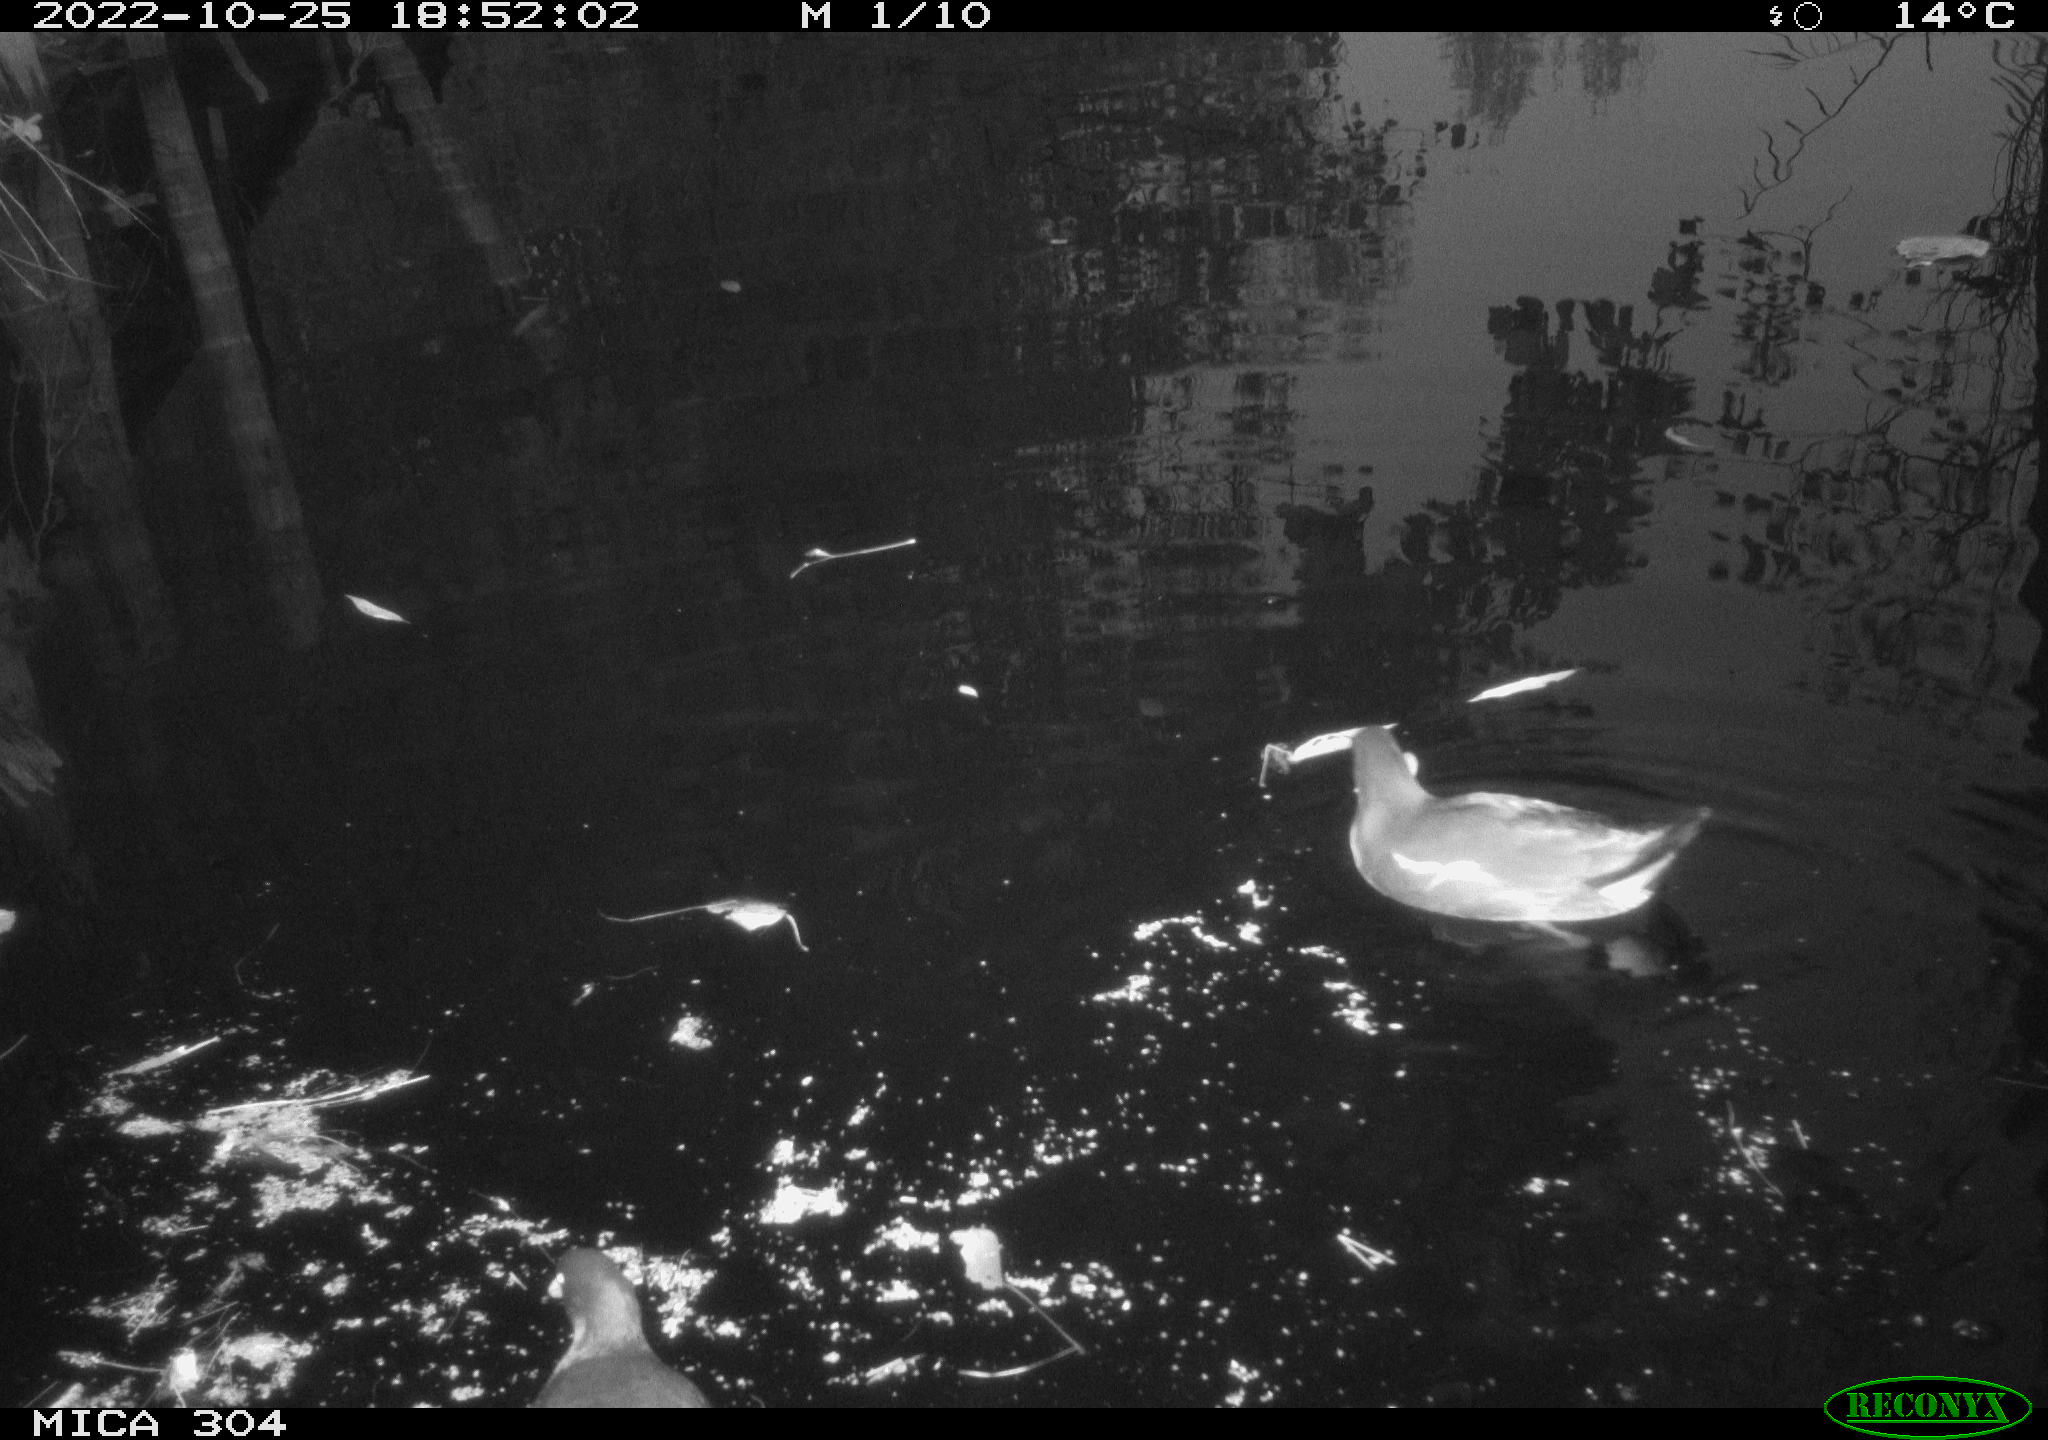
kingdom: Animalia
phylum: Chordata
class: Aves
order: Gruiformes
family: Rallidae
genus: Gallinula
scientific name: Gallinula chloropus
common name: Common moorhen
